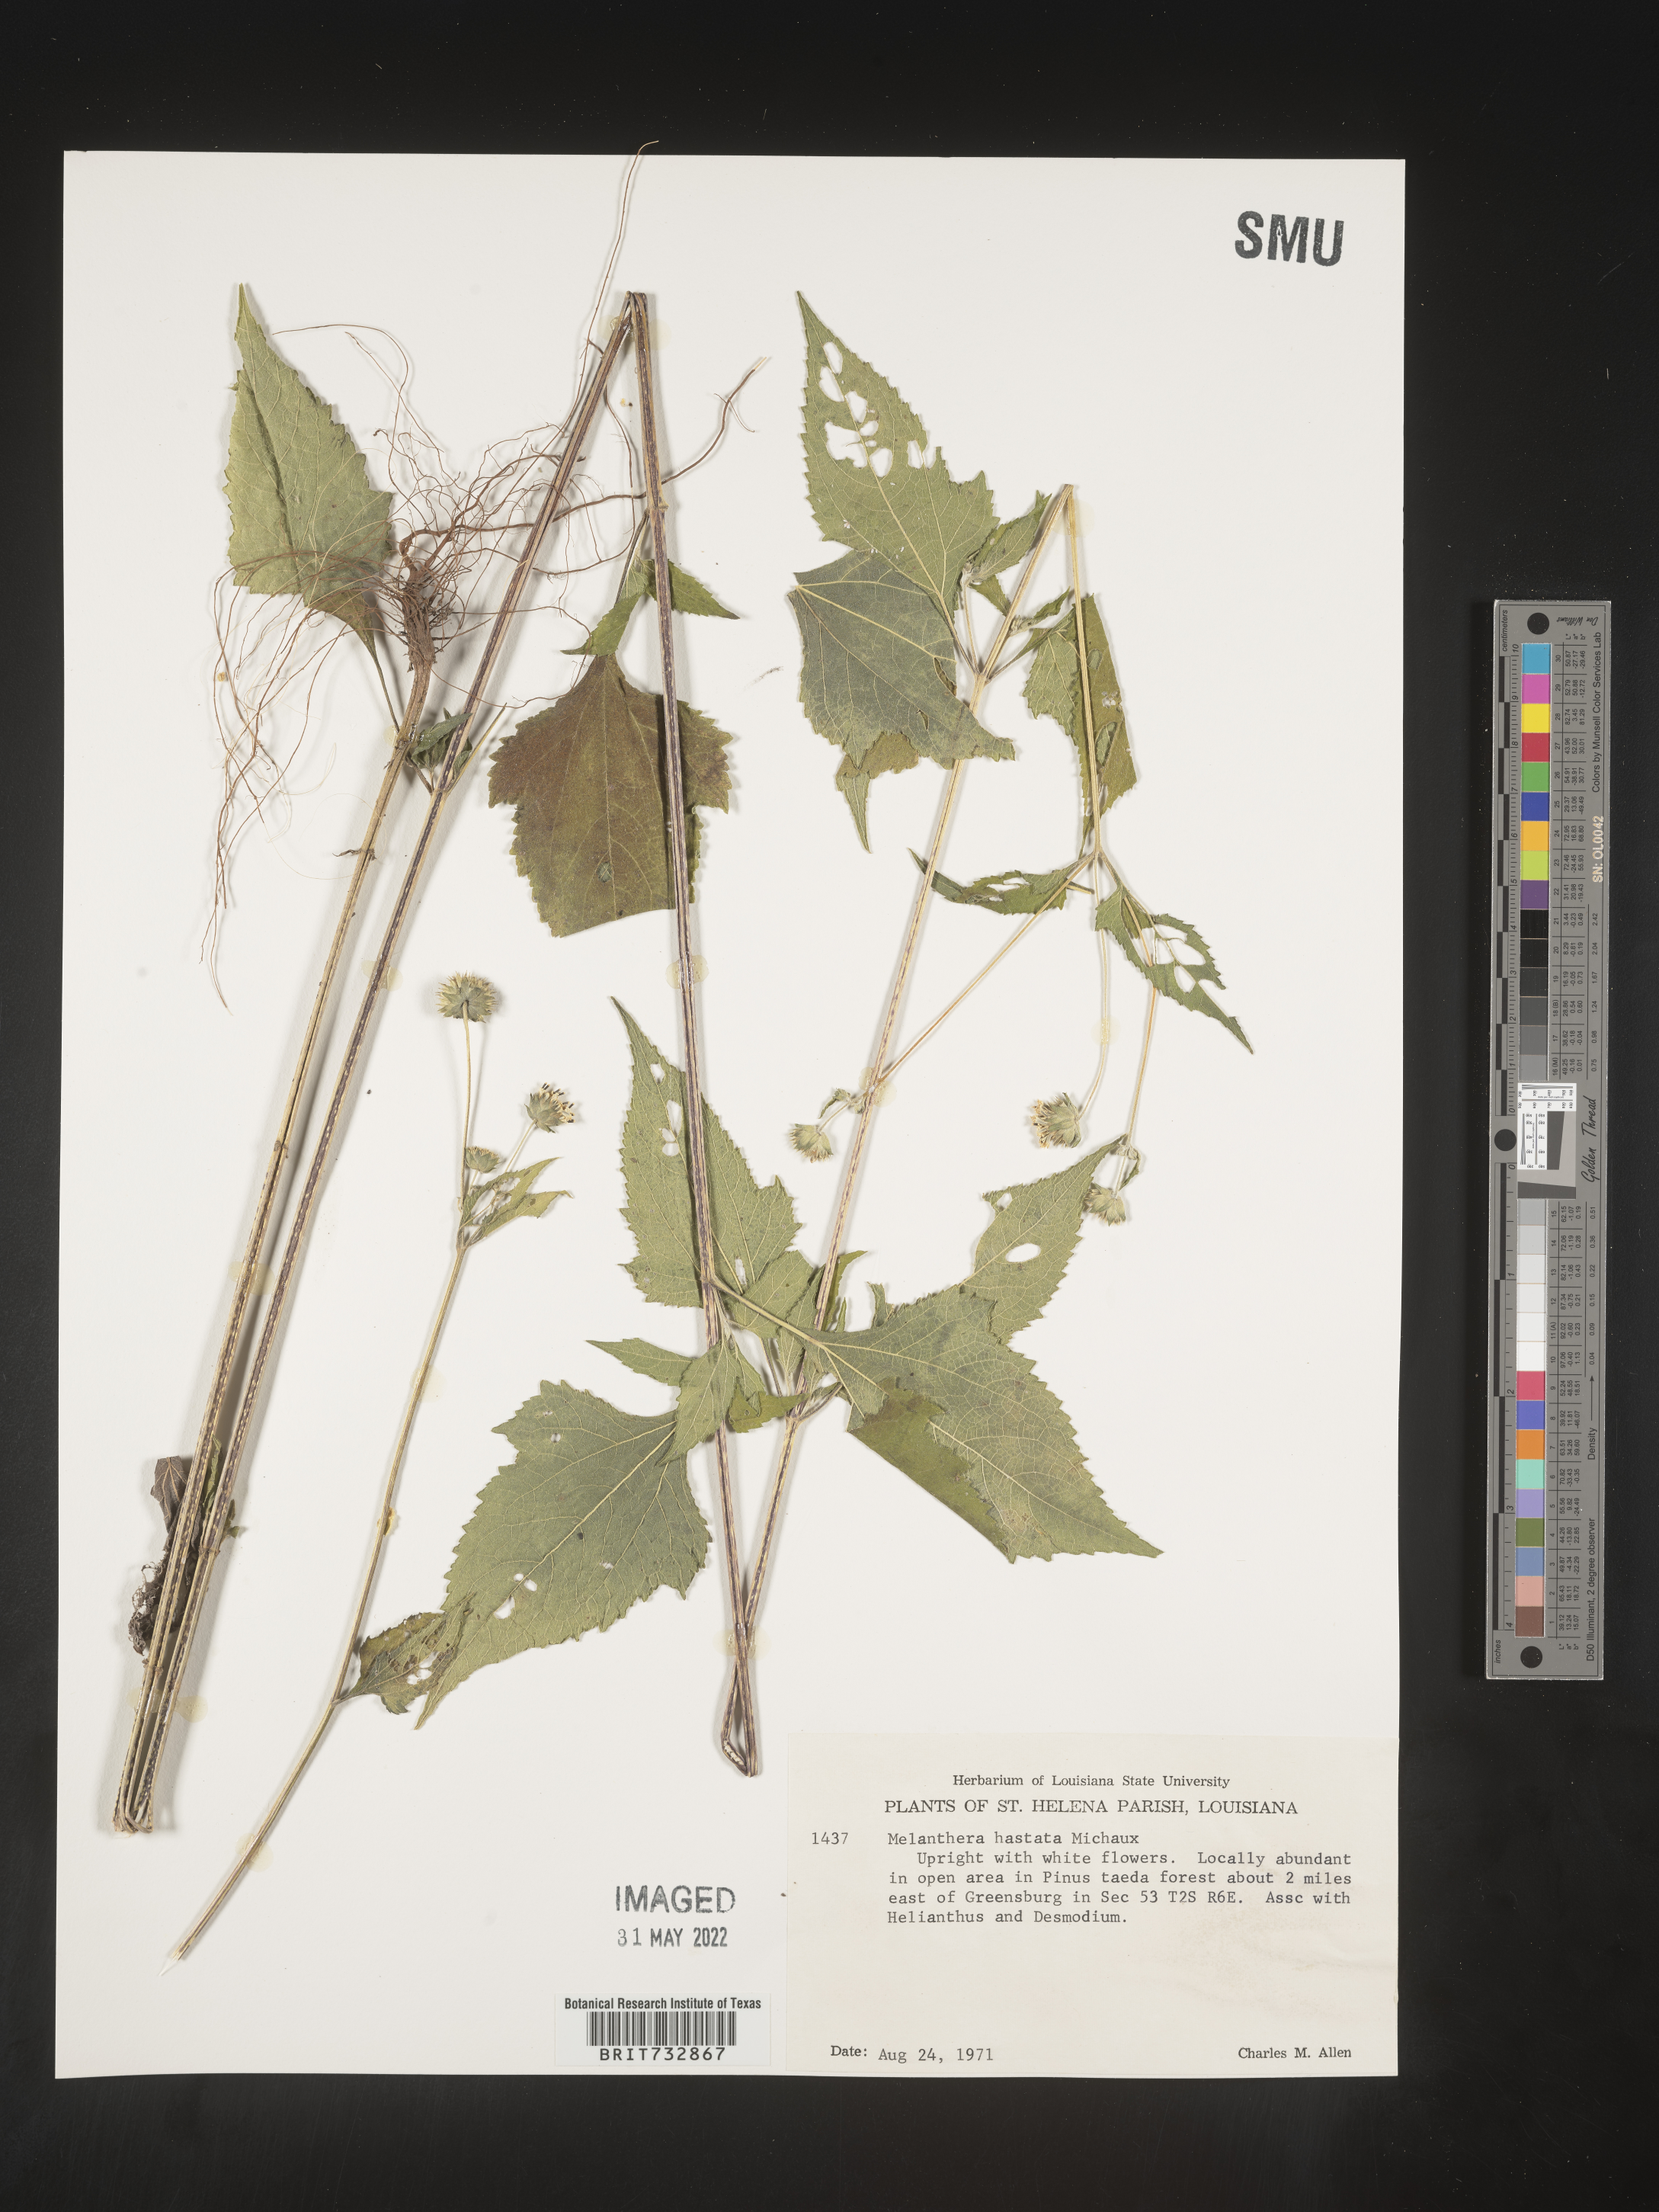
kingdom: Plantae
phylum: Tracheophyta
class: Magnoliopsida
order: Asterales
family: Asteraceae
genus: Melanthera
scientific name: Melanthera nivea
